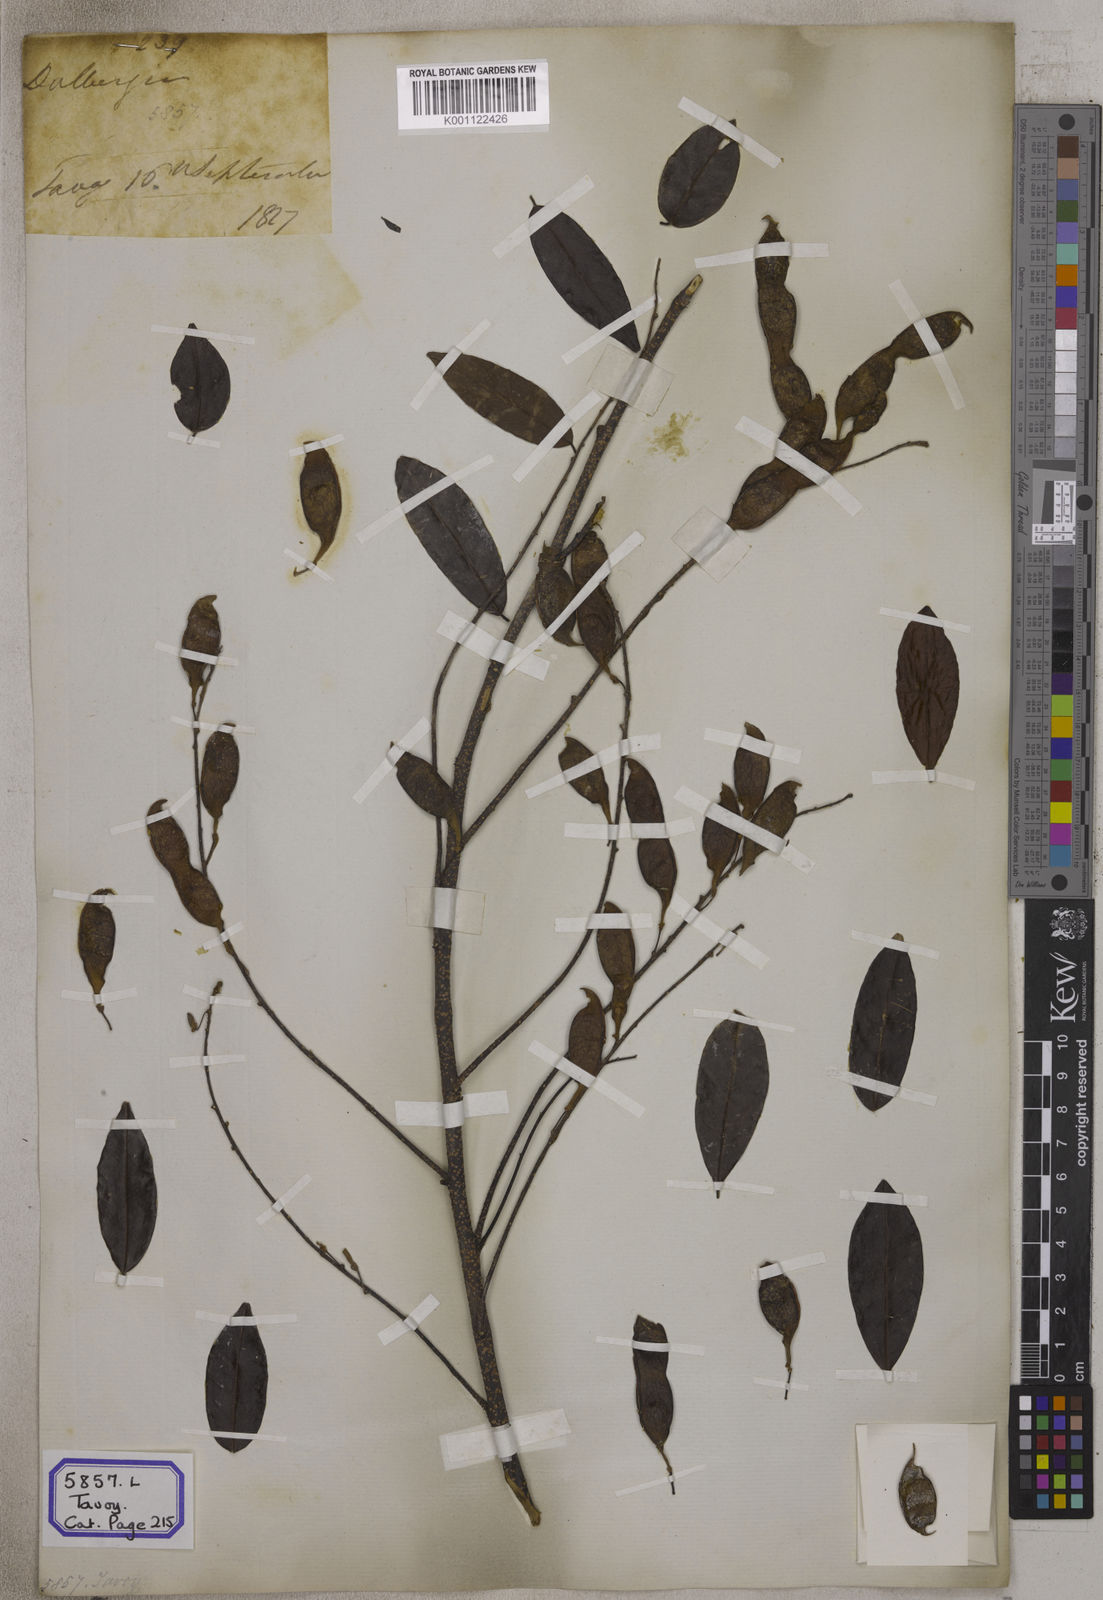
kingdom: Plantae
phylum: Tracheophyta
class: Magnoliopsida
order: Fabales
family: Fabaceae
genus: Brachypterum
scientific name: Brachypterum scandens
